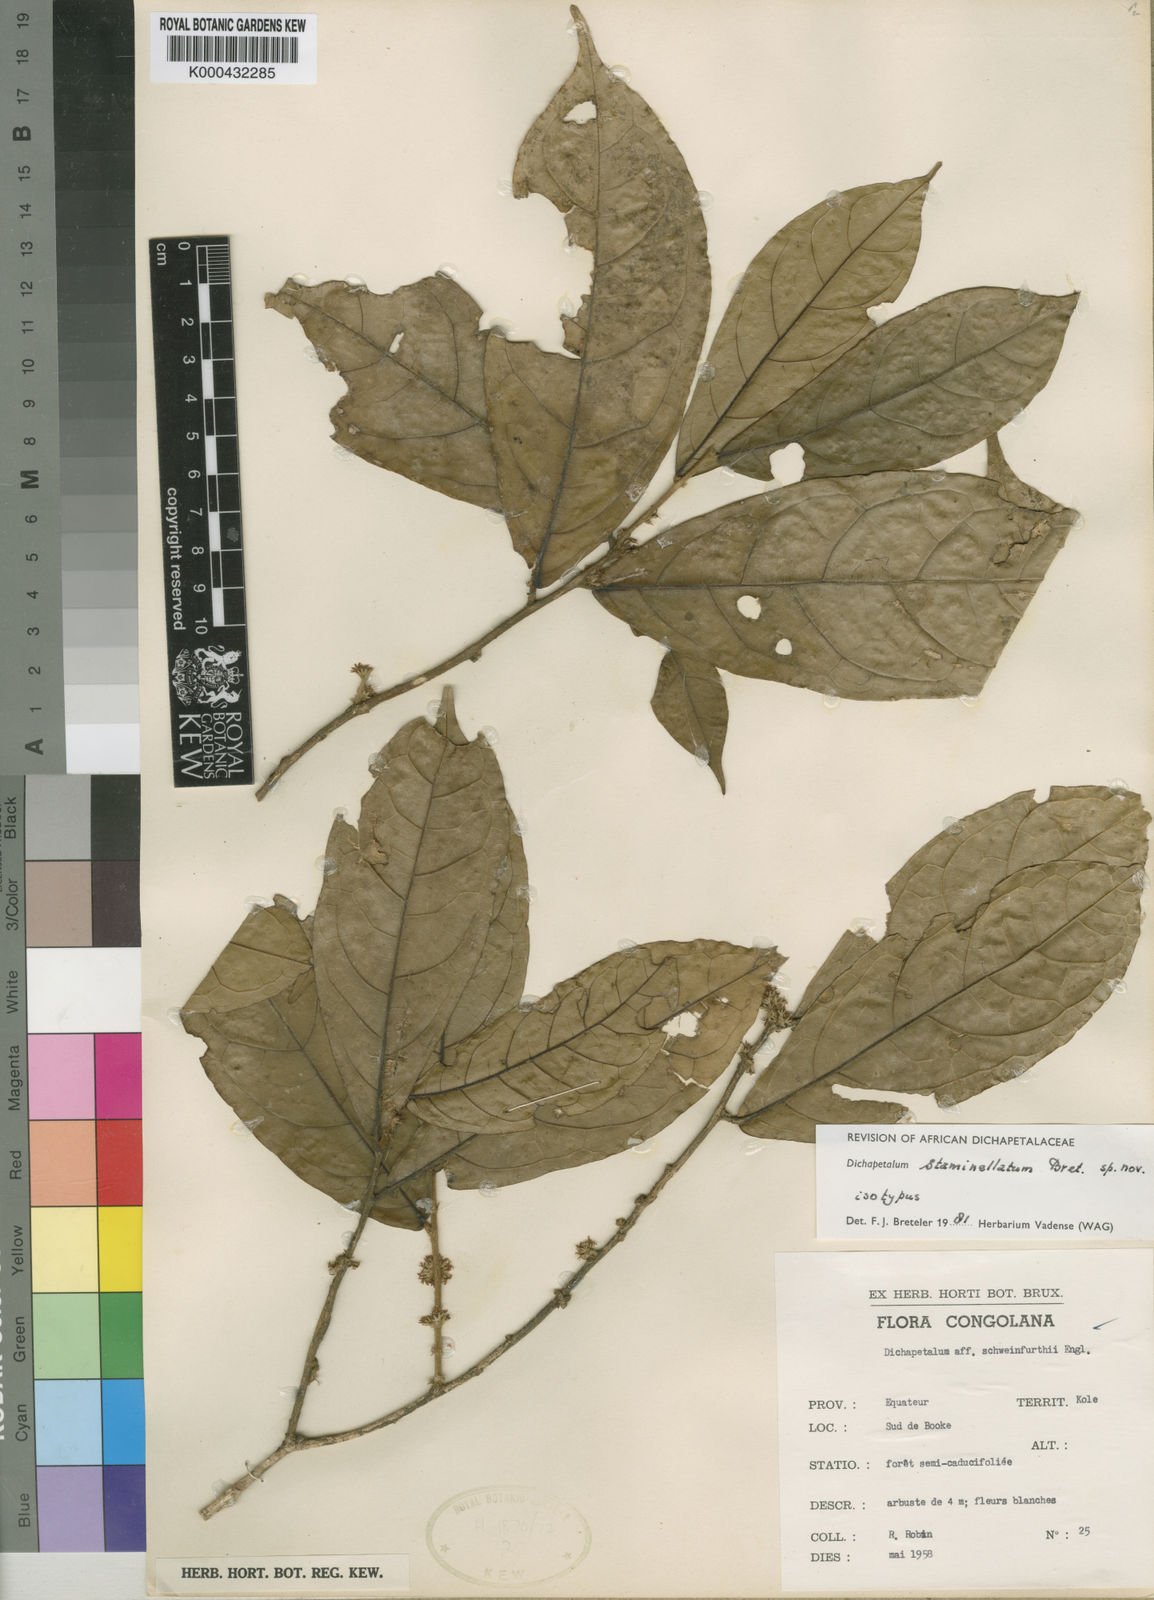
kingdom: Plantae
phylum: Tracheophyta
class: Magnoliopsida
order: Malpighiales
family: Dichapetalaceae
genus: Dichapetalum
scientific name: Dichapetalum staminellatum
